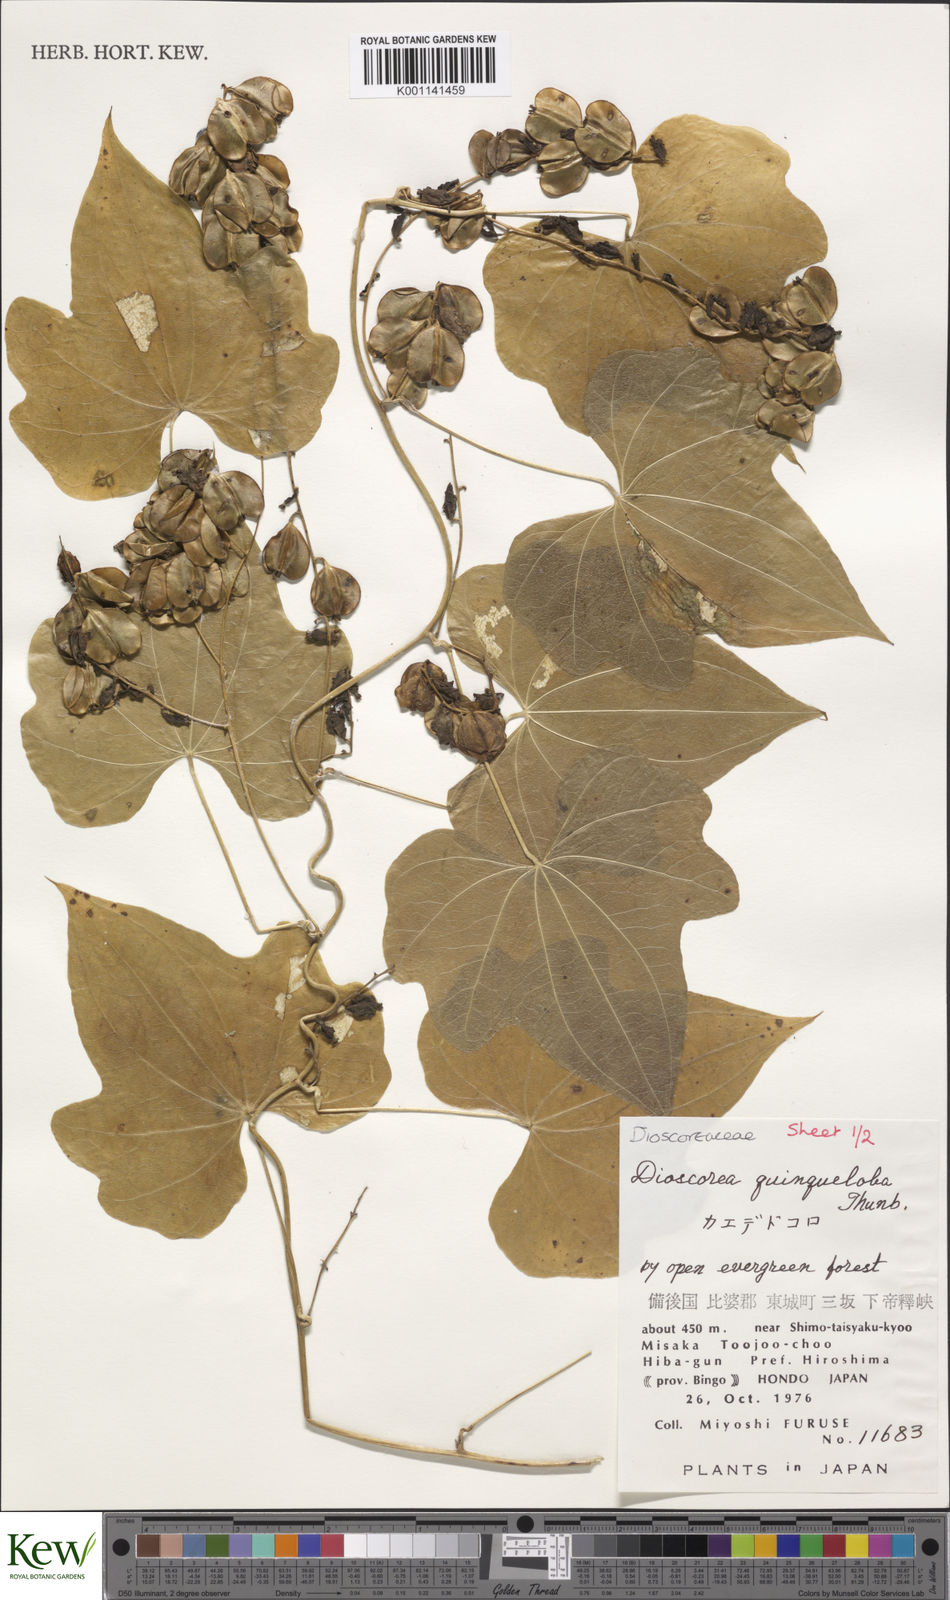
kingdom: Plantae
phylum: Tracheophyta
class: Liliopsida
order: Dioscoreales
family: Dioscoreaceae
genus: Dioscorea
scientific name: Dioscorea quinquelobata
